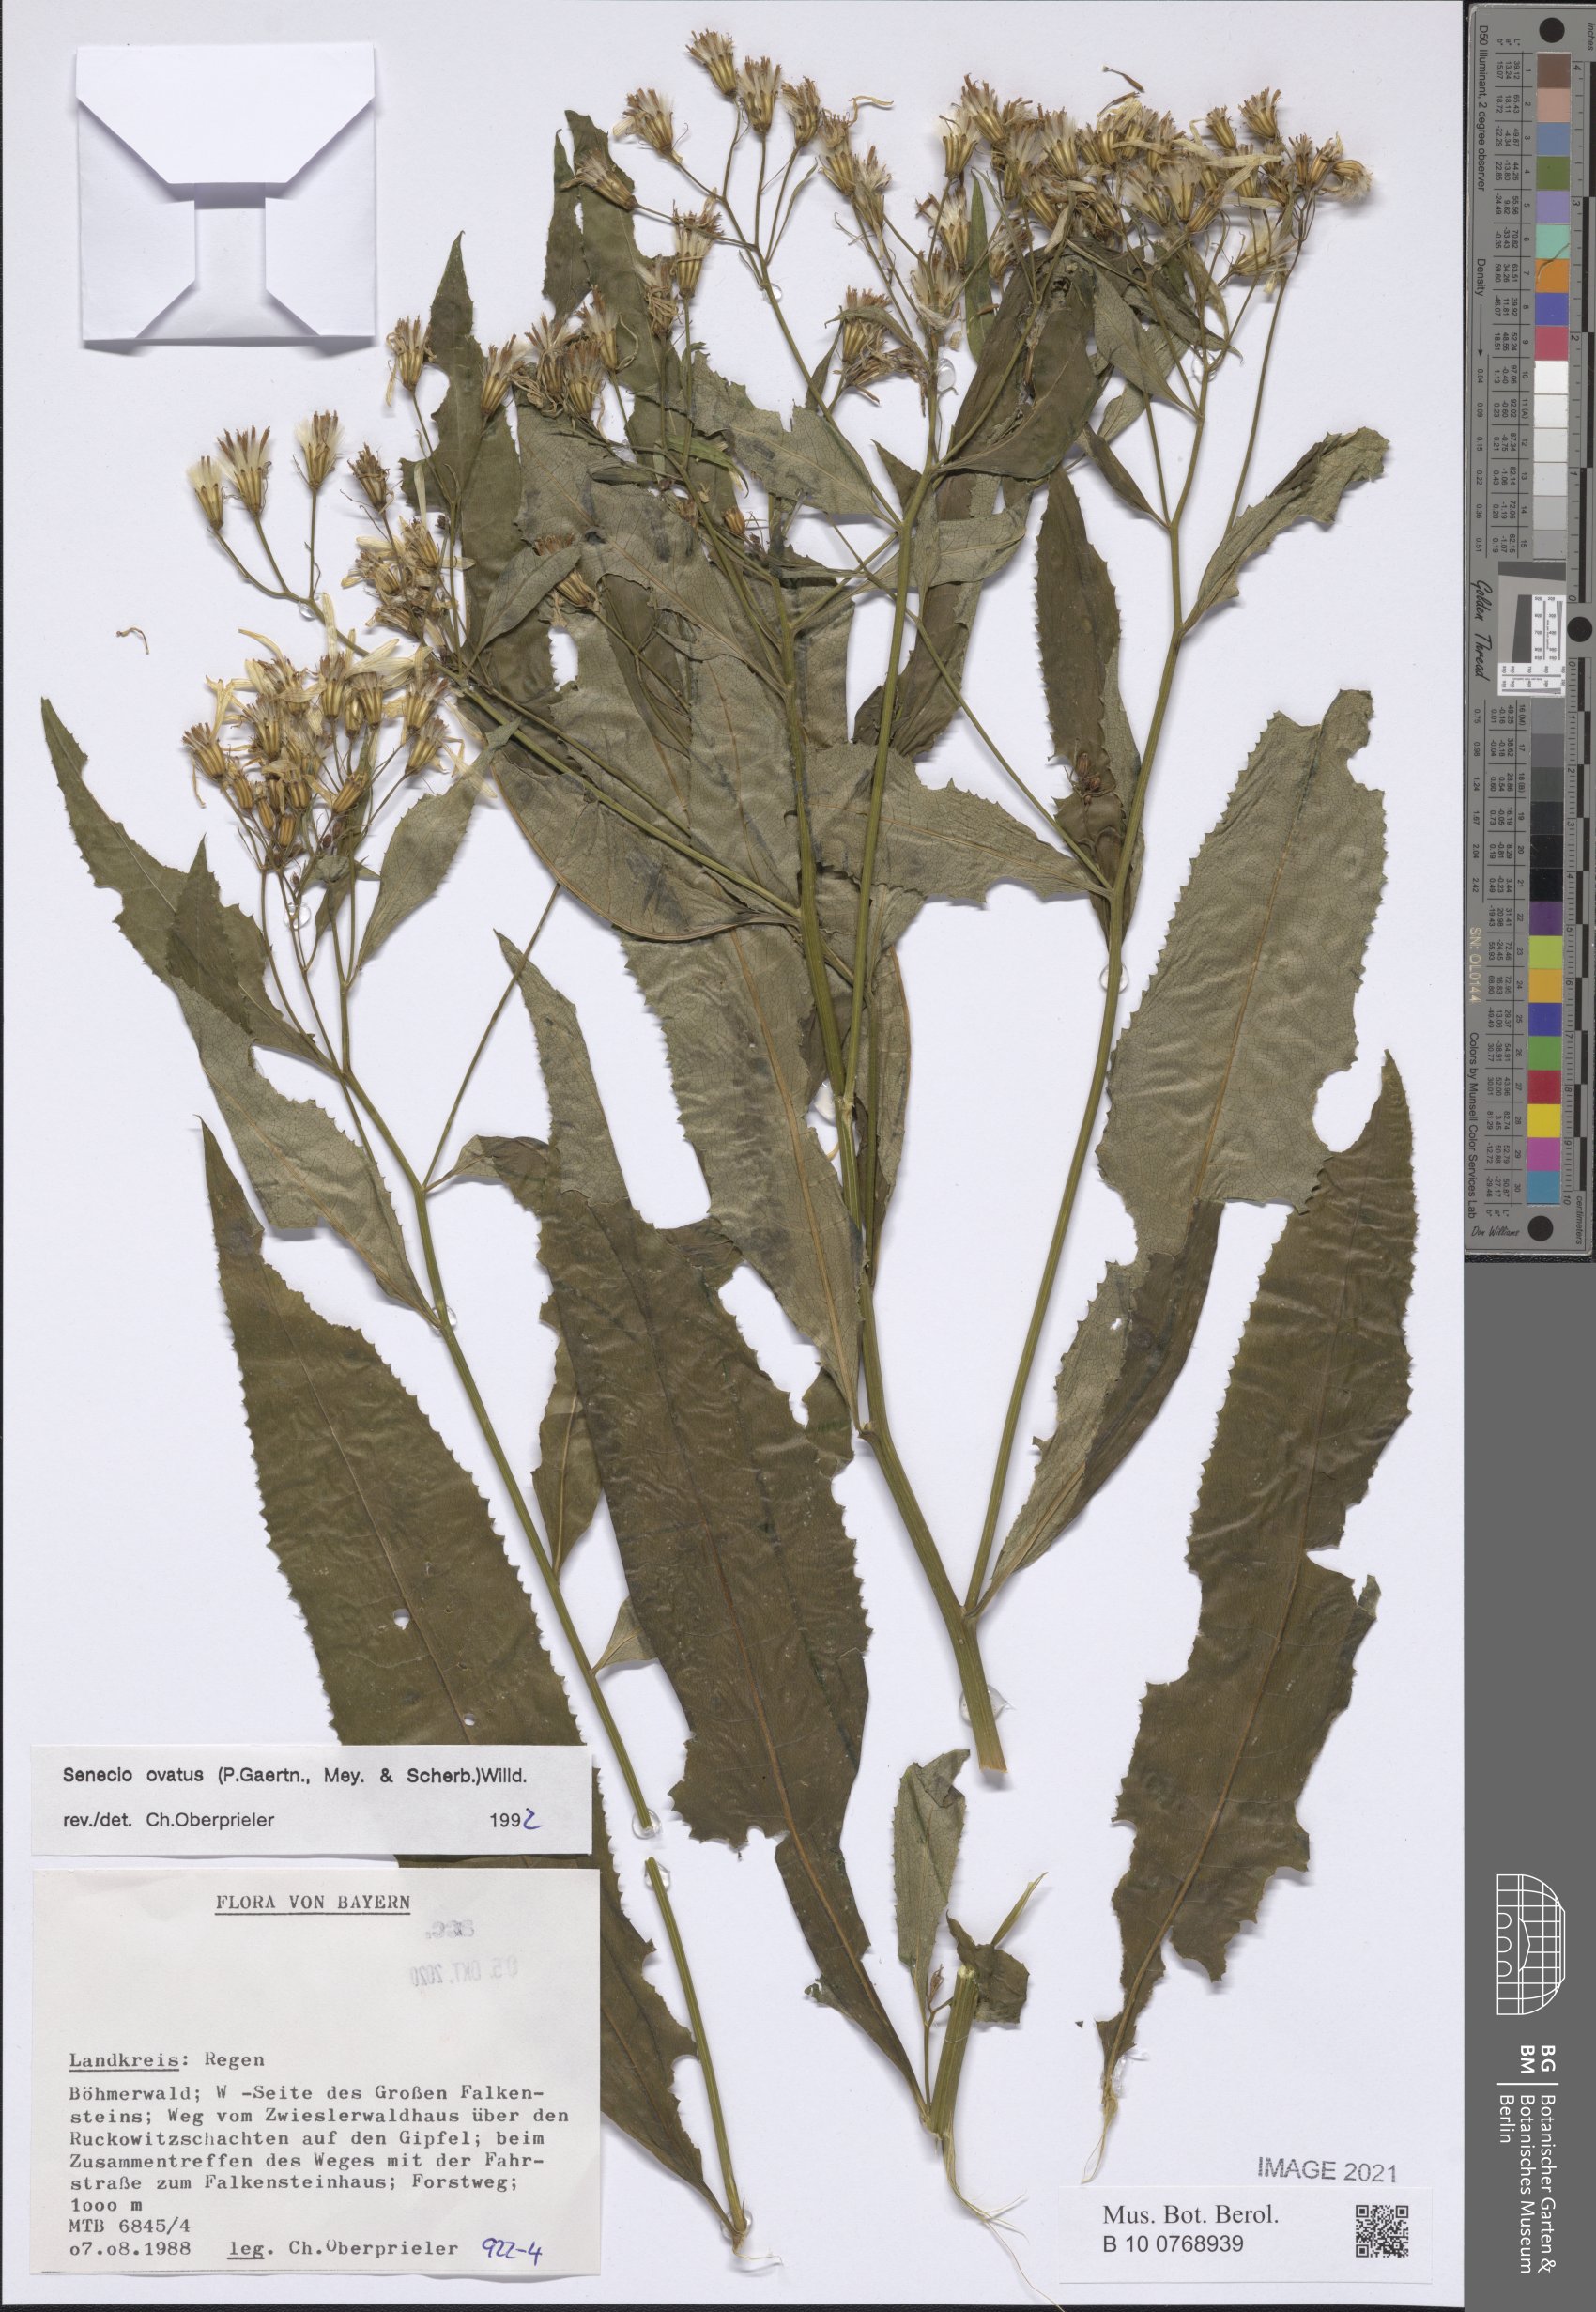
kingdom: Plantae
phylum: Tracheophyta
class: Magnoliopsida
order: Asterales
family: Asteraceae
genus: Senecio
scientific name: Senecio ovatus
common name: Wood ragwort
